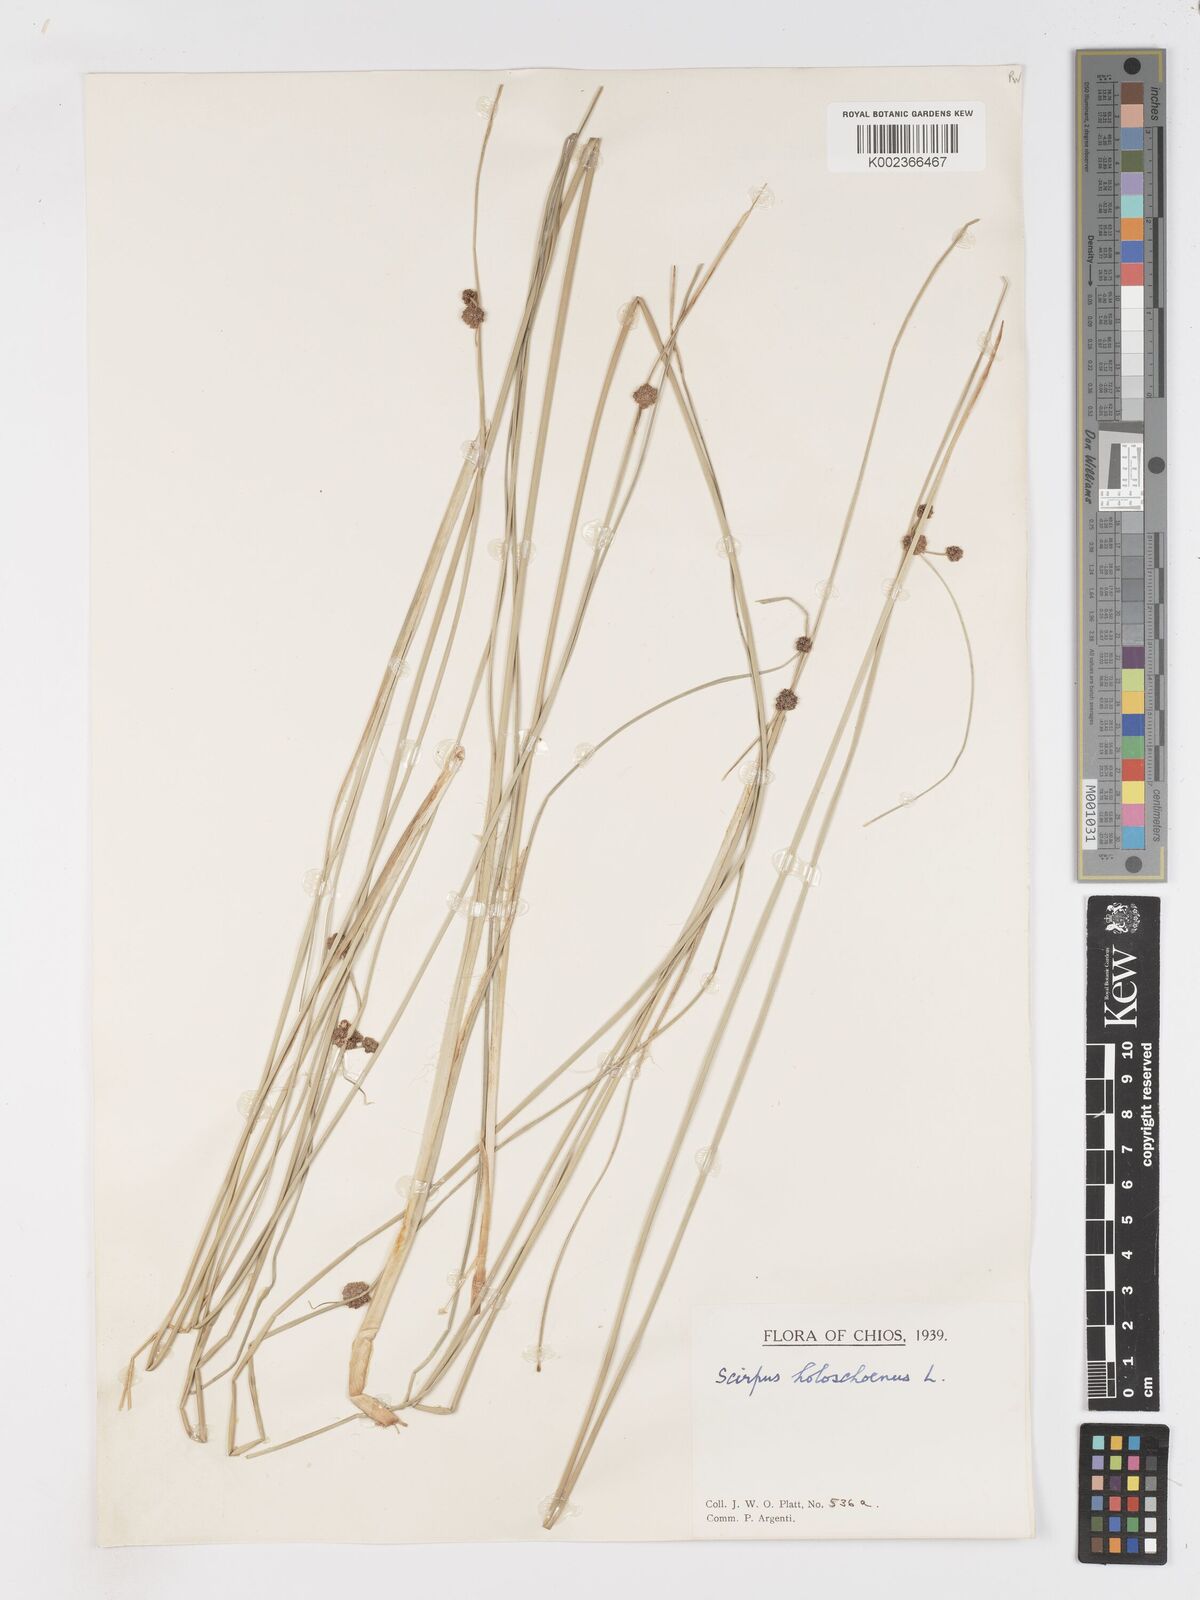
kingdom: Plantae
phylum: Tracheophyta
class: Liliopsida
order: Poales
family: Cyperaceae
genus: Scirpoides
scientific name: Scirpoides holoschoenus
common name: Round-headed club-rush
